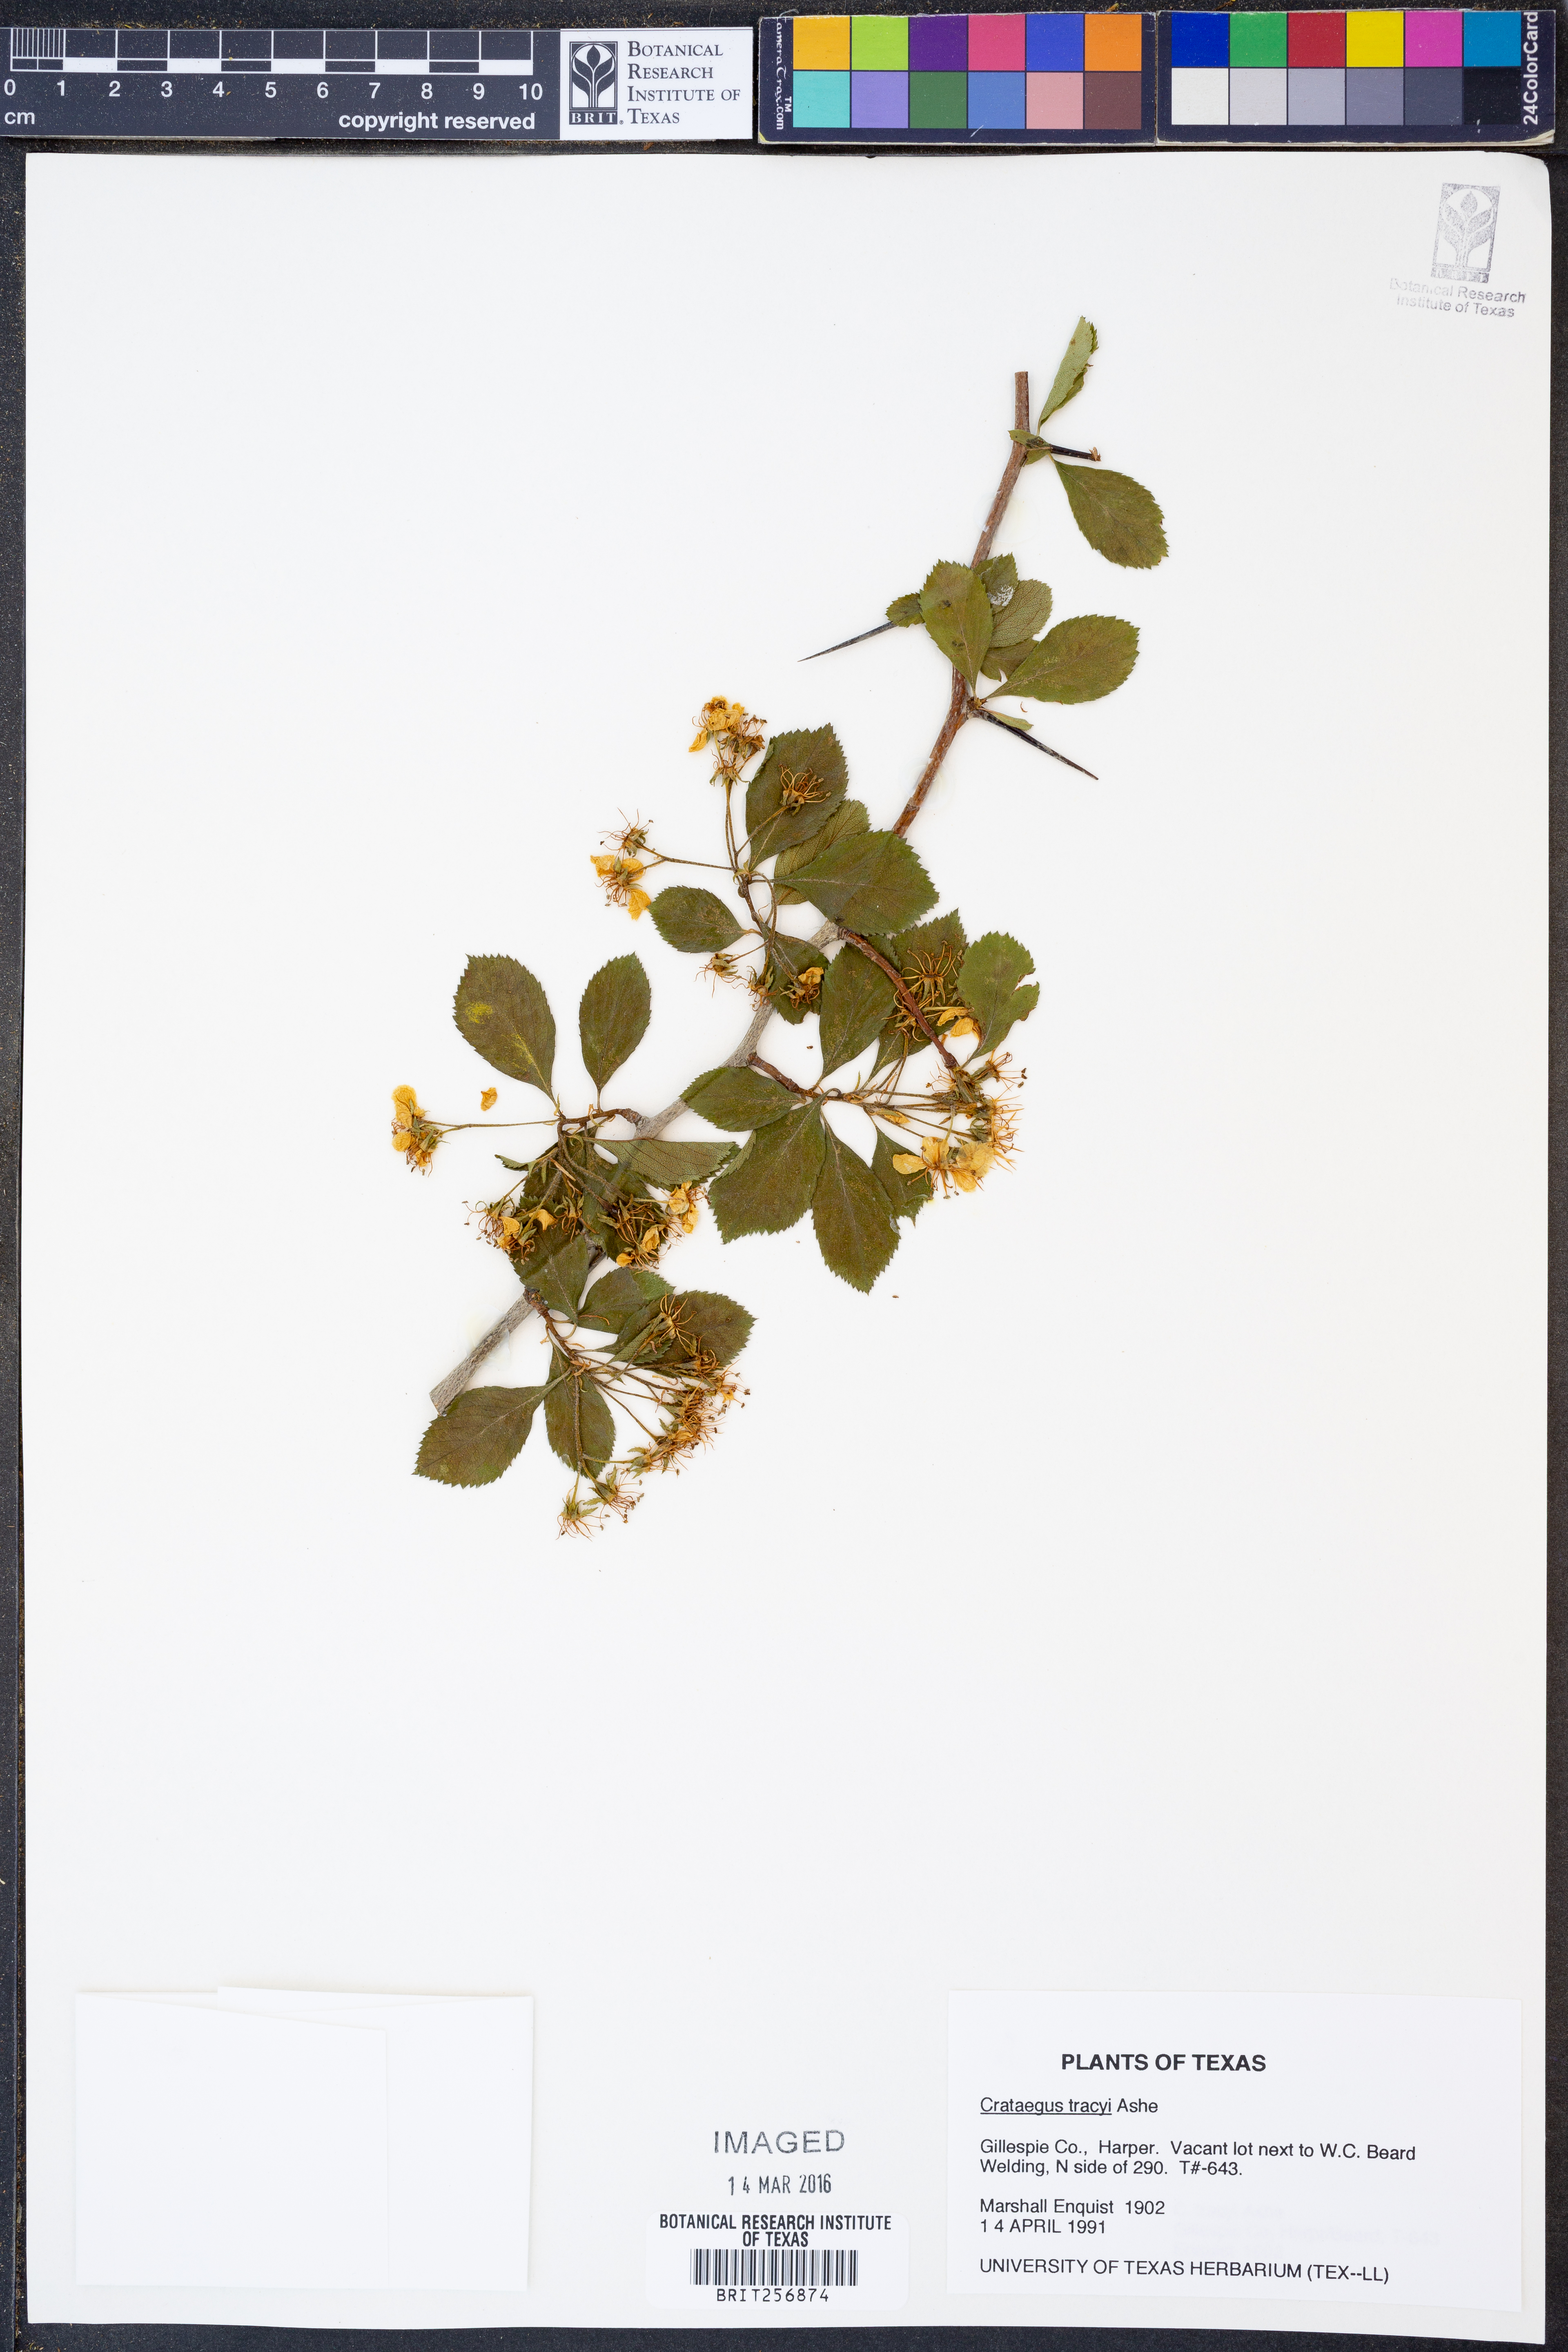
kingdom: Plantae
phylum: Tracheophyta
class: Magnoliopsida
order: Rosales
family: Rosaceae
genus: Crataegus
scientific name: Crataegus tracyi
